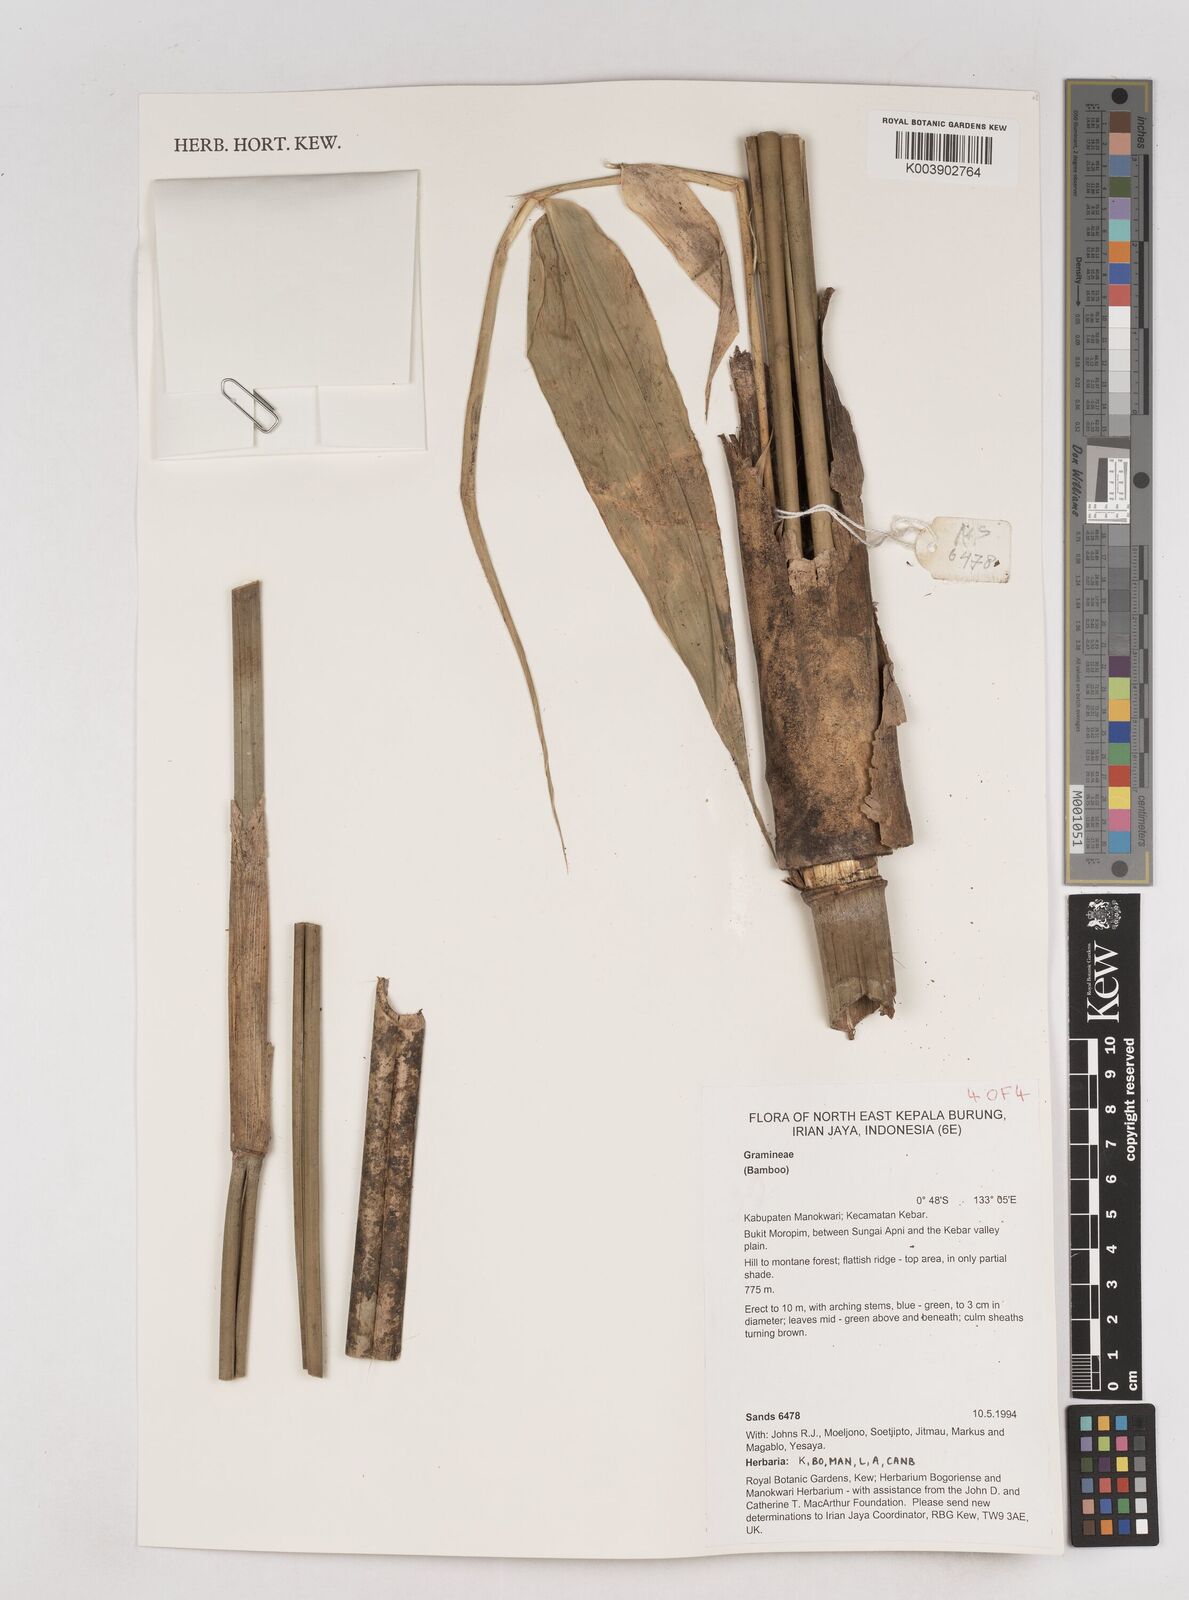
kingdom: Plantae
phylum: Tracheophyta
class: Liliopsida
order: Poales
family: Poaceae
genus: Schizostachyum
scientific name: Schizostachyum
